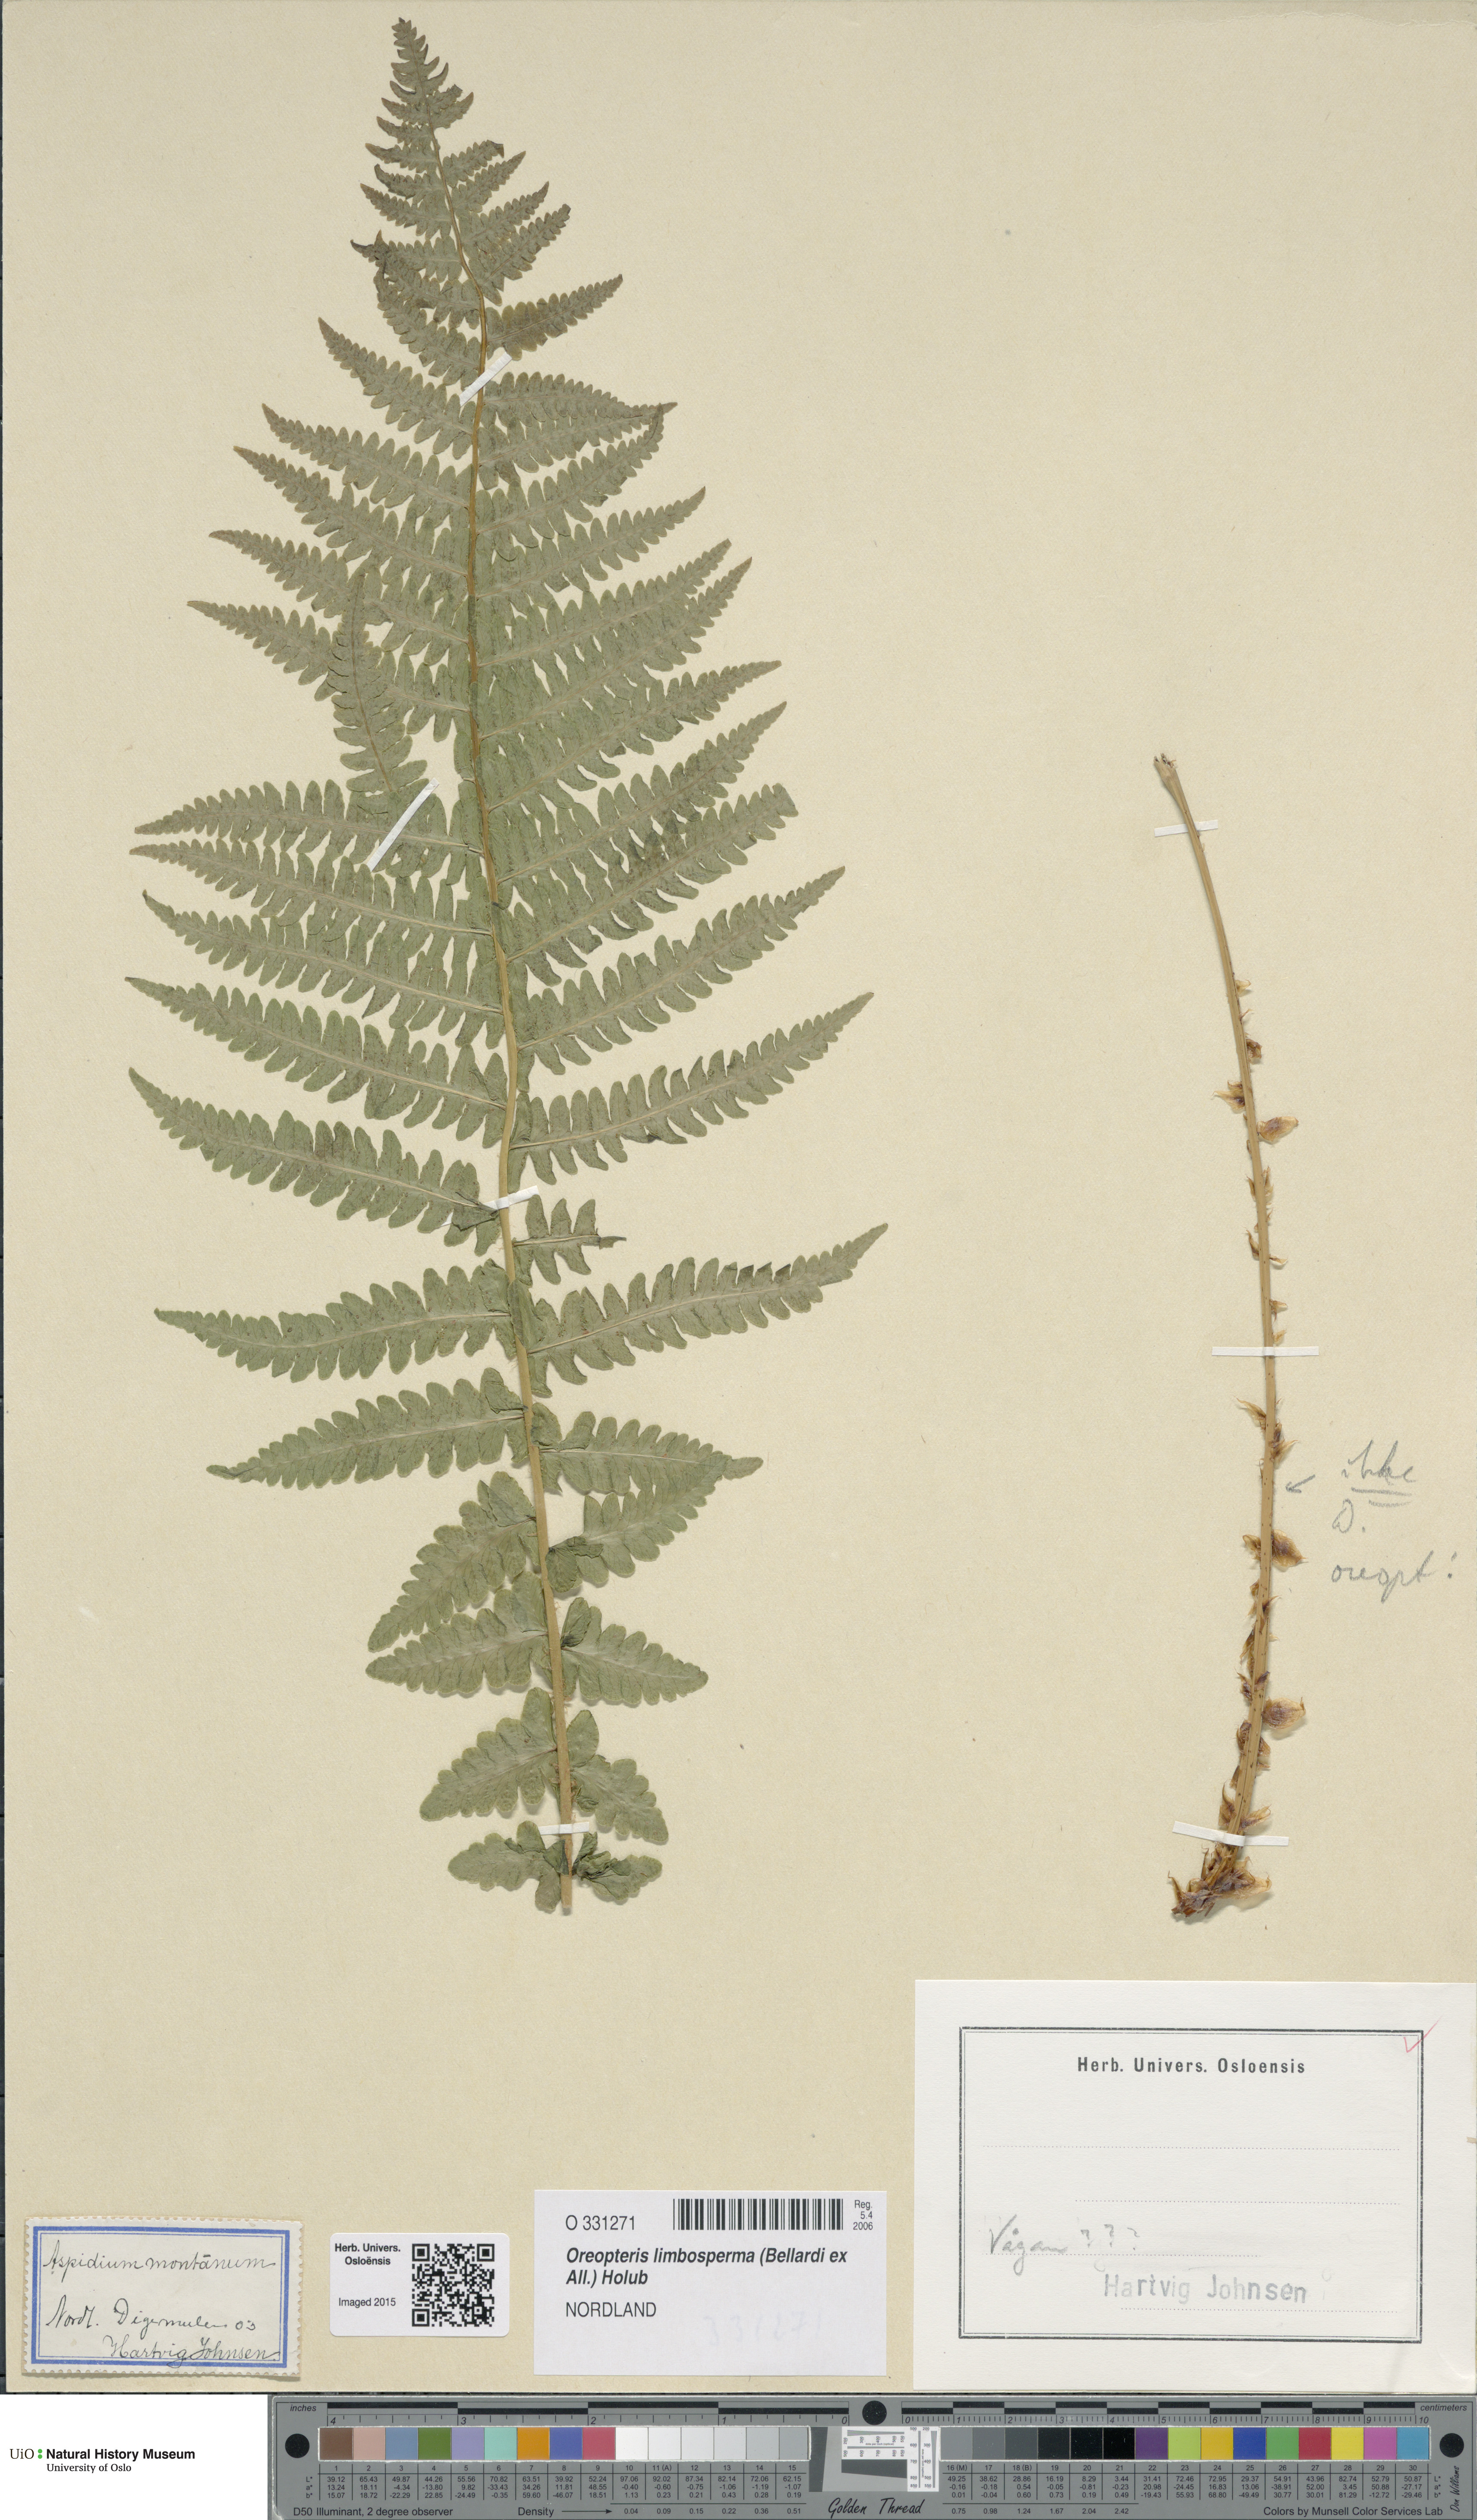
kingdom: Plantae
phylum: Tracheophyta
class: Polypodiopsida
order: Polypodiales
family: Thelypteridaceae
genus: Oreopteris
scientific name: Oreopteris limbosperma
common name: Lemon-scented fern
